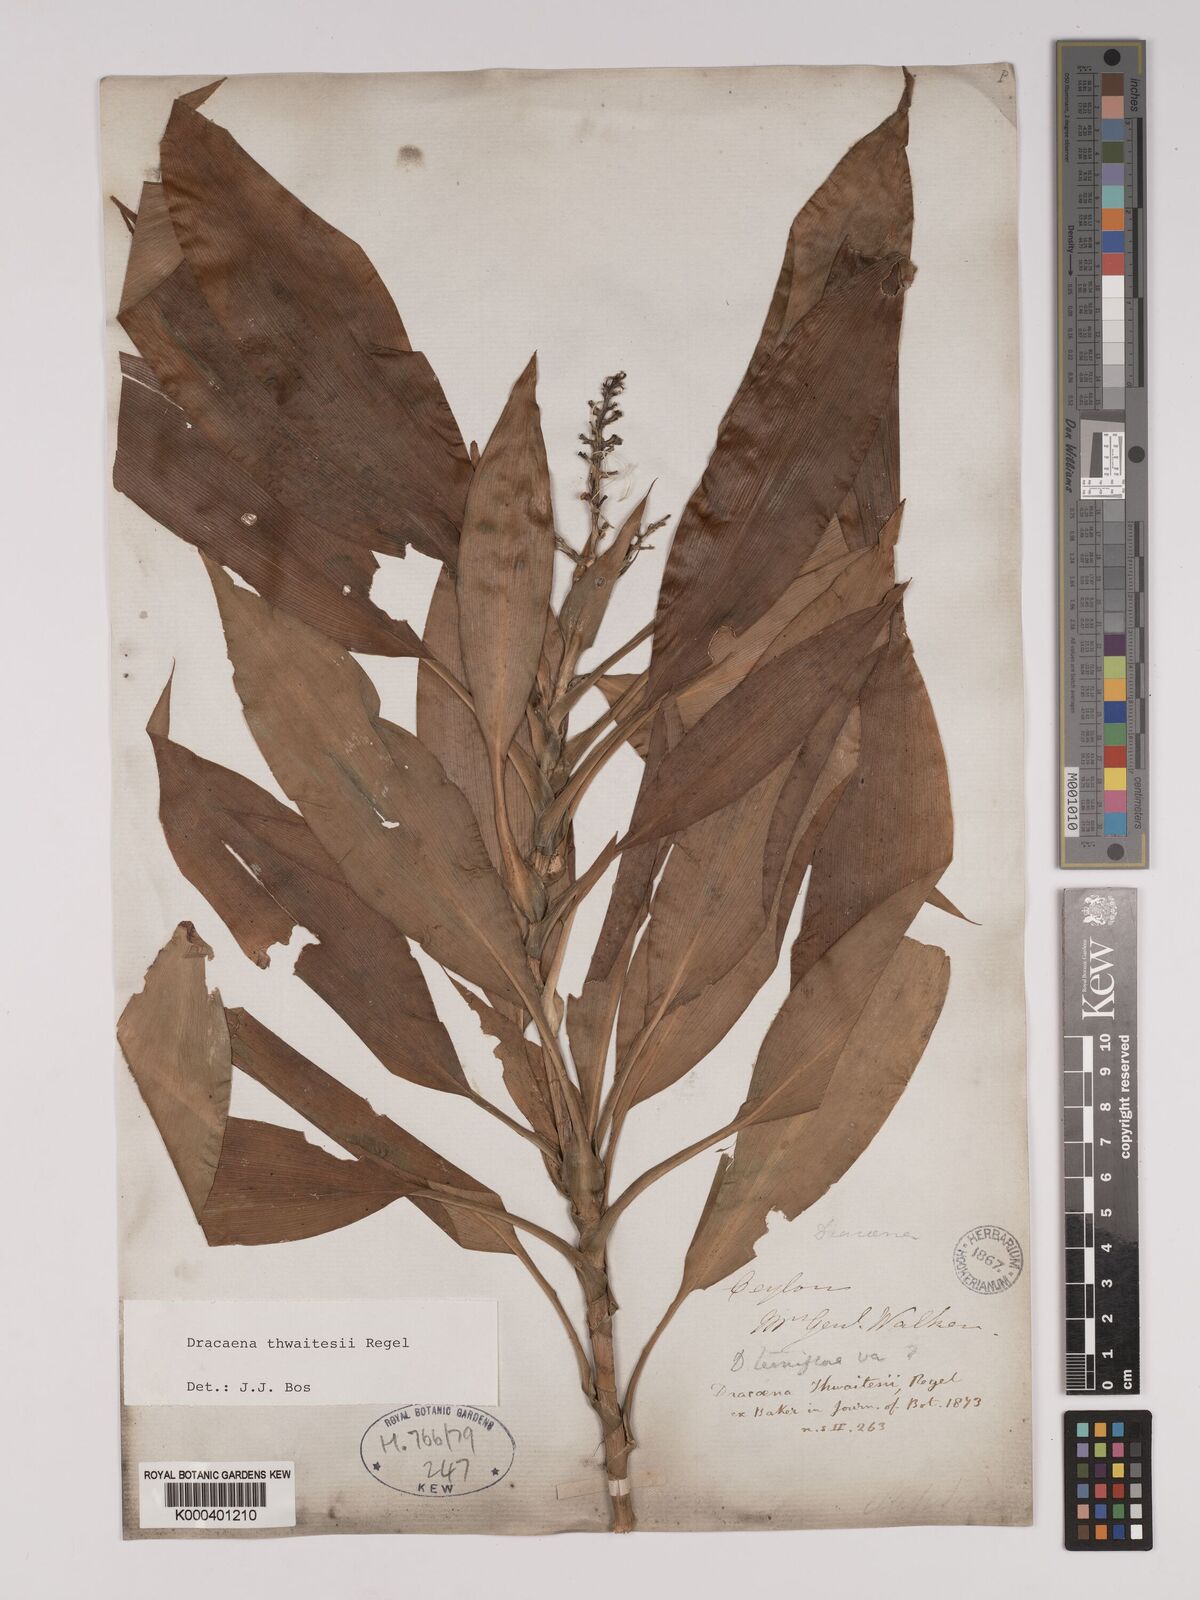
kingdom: Plantae
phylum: Tracheophyta
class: Liliopsida
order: Asparagales
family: Asparagaceae
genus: Dracaena
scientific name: Dracaena thwaitesii
